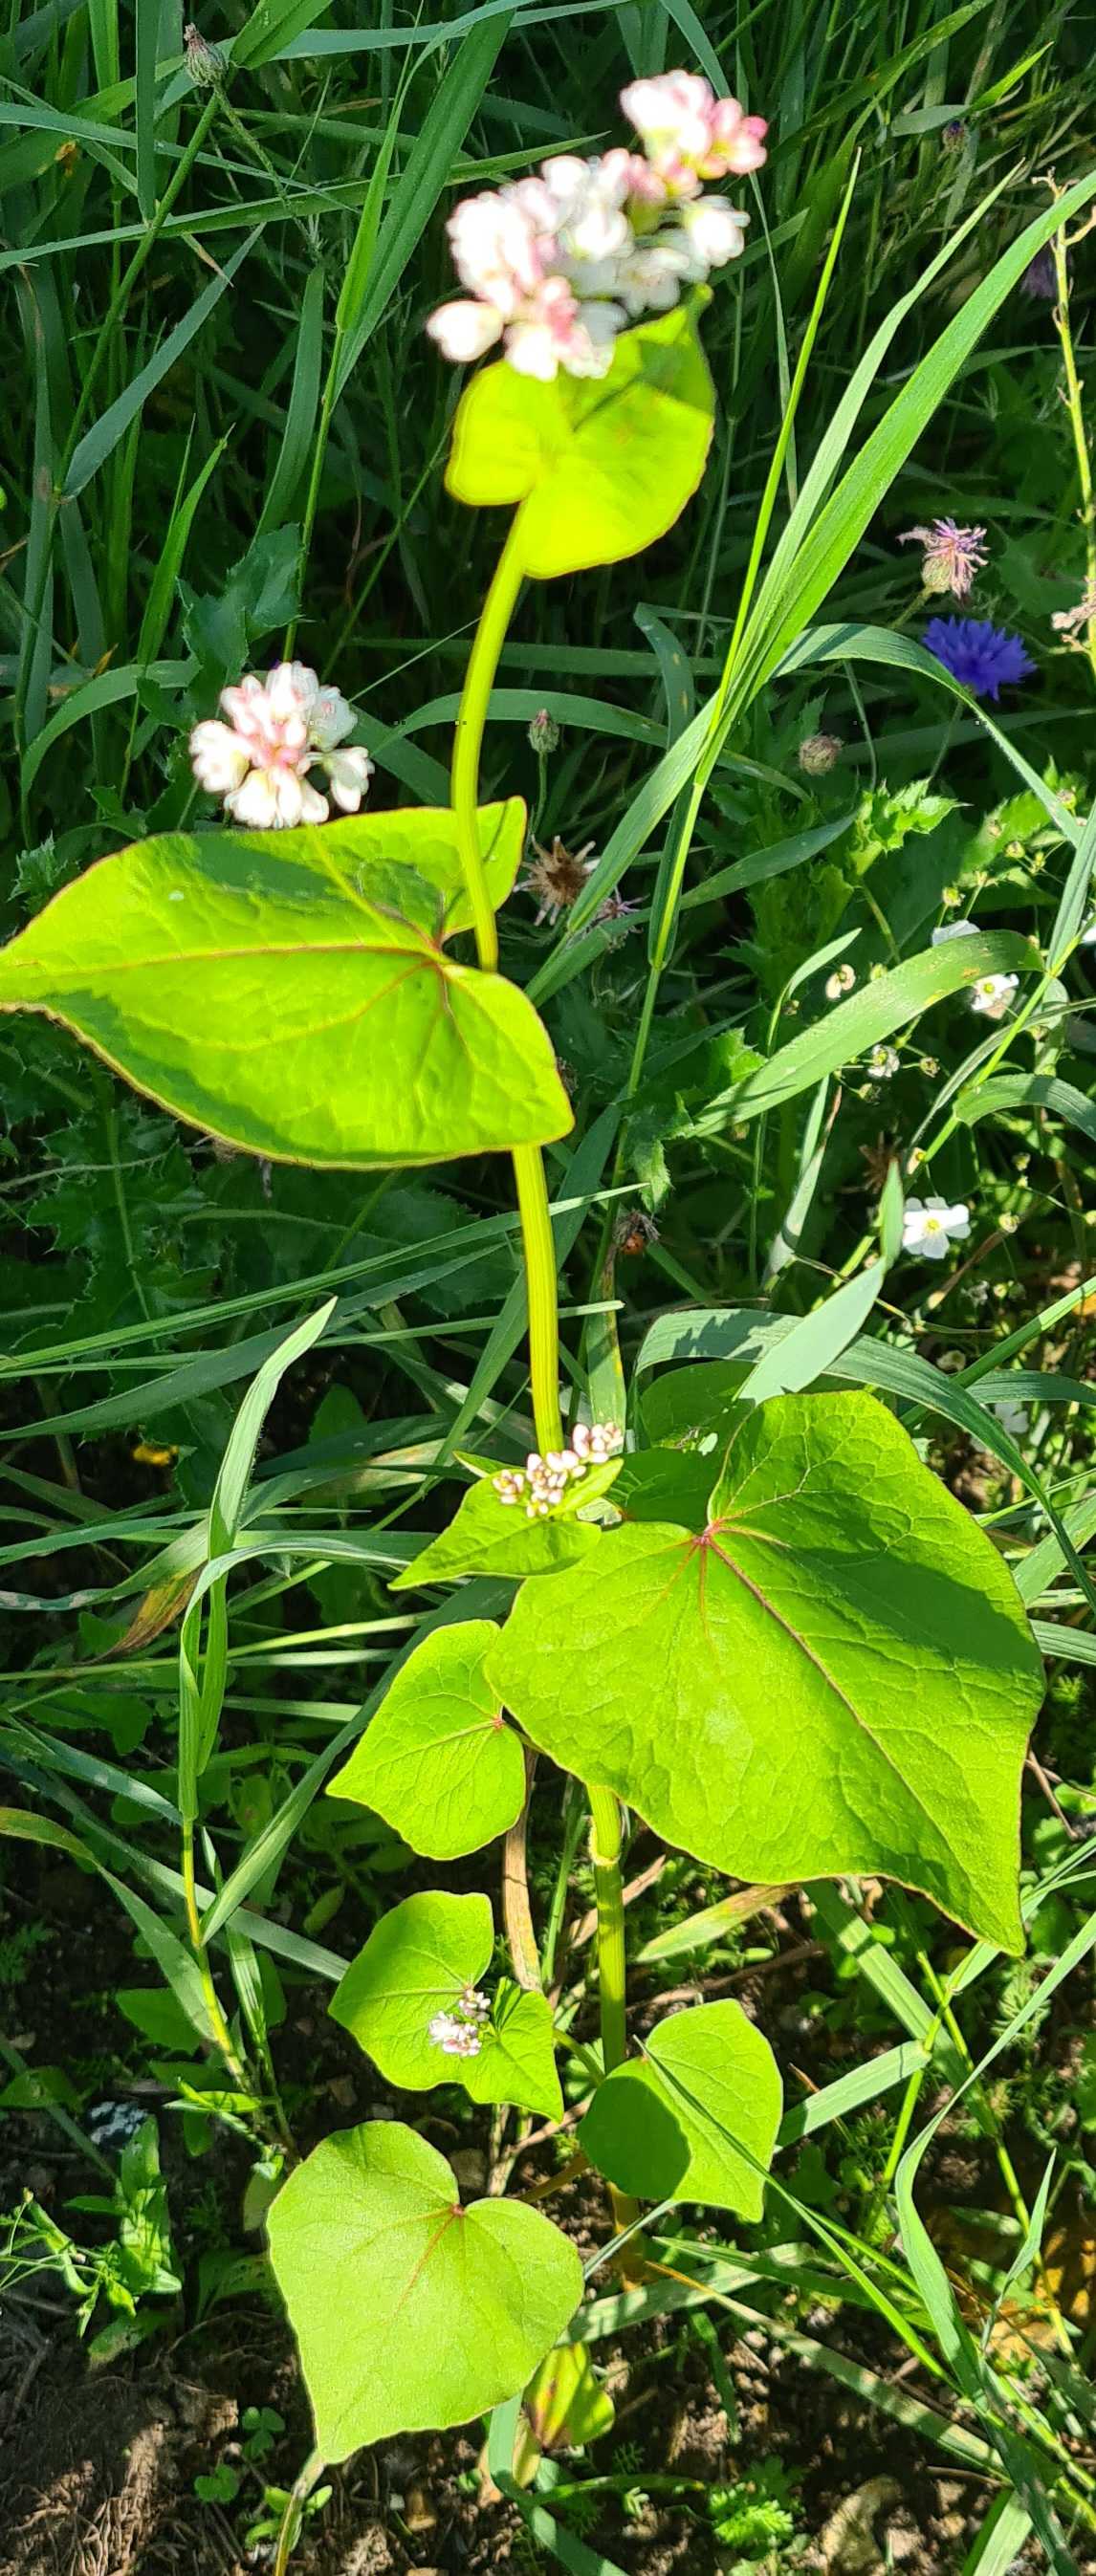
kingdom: Plantae
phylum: Tracheophyta
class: Magnoliopsida
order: Caryophyllales
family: Polygonaceae
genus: Fagopyrum
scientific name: Fagopyrum esculentum
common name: Almindelig boghvede
